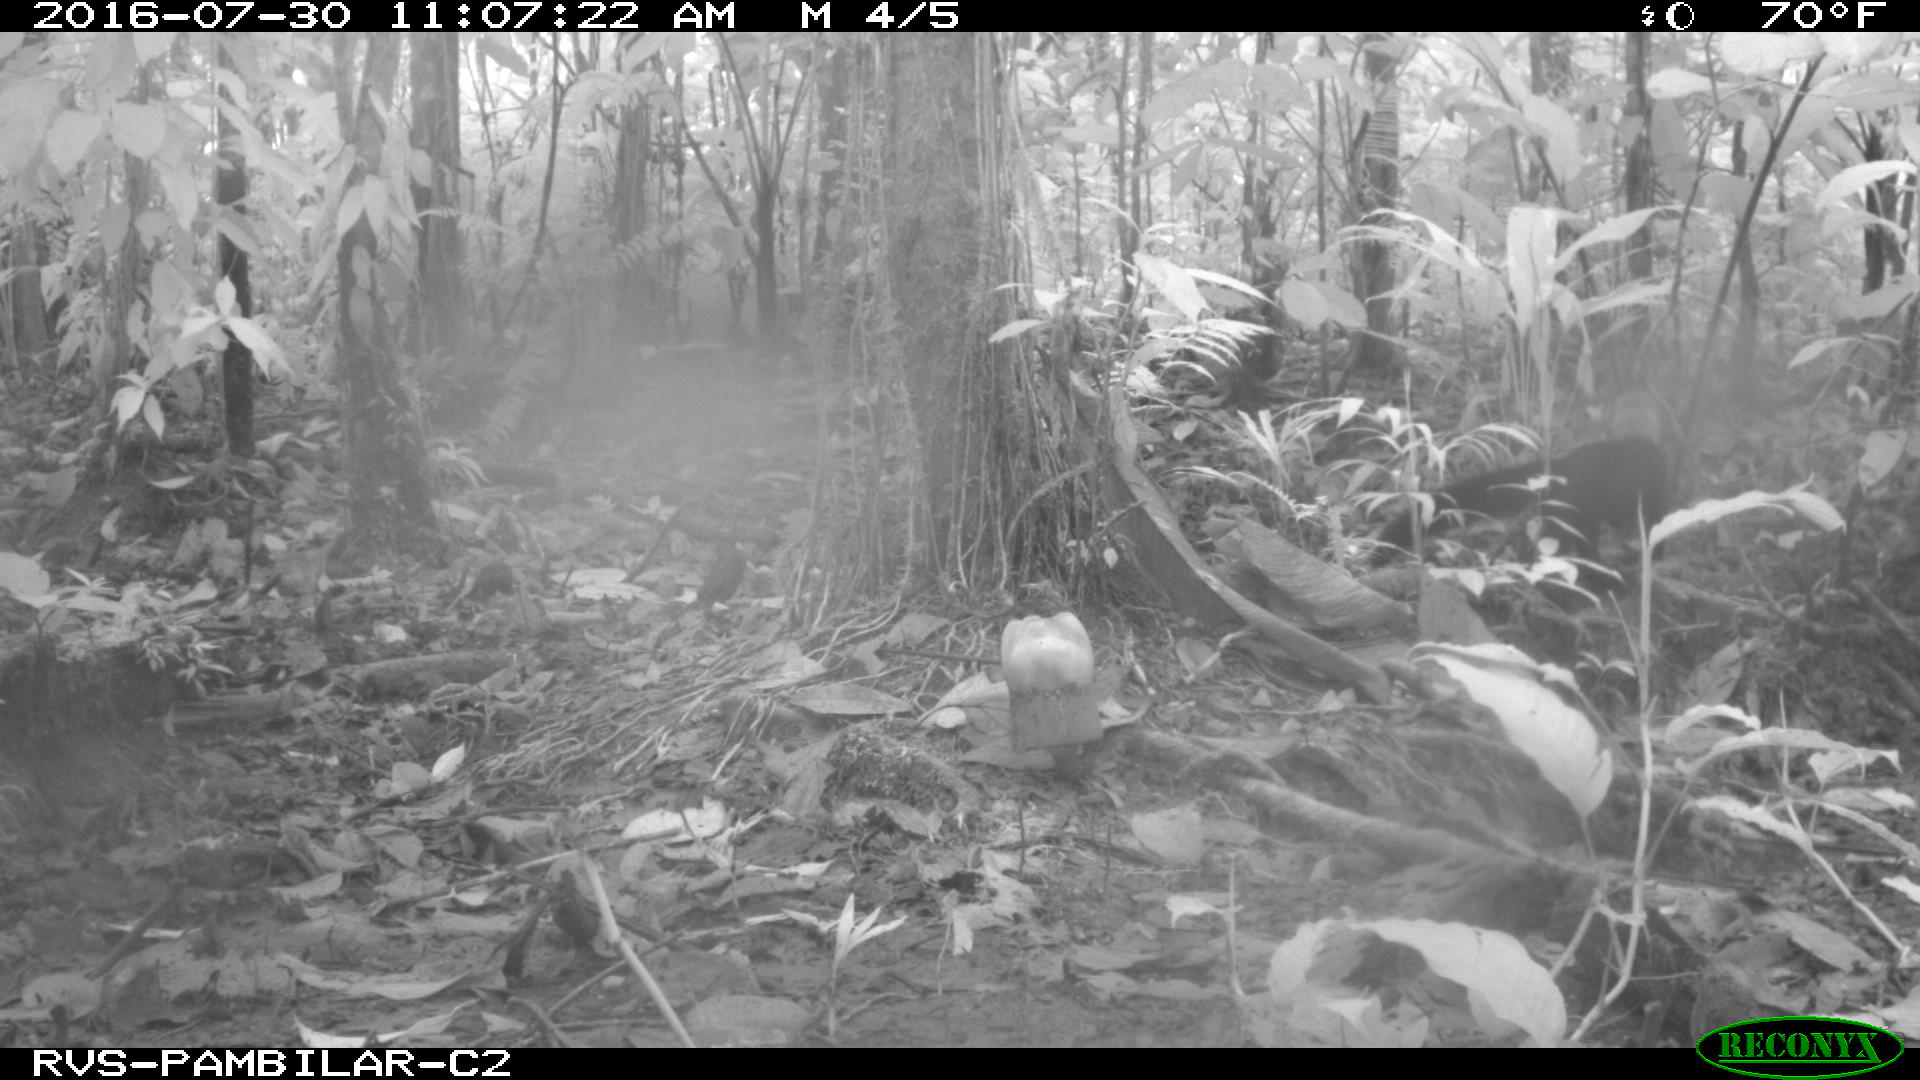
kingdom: Animalia
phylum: Chordata
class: Mammalia
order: Carnivora
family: Mustelidae
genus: Eira
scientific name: Eira barbara
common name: Tayra
